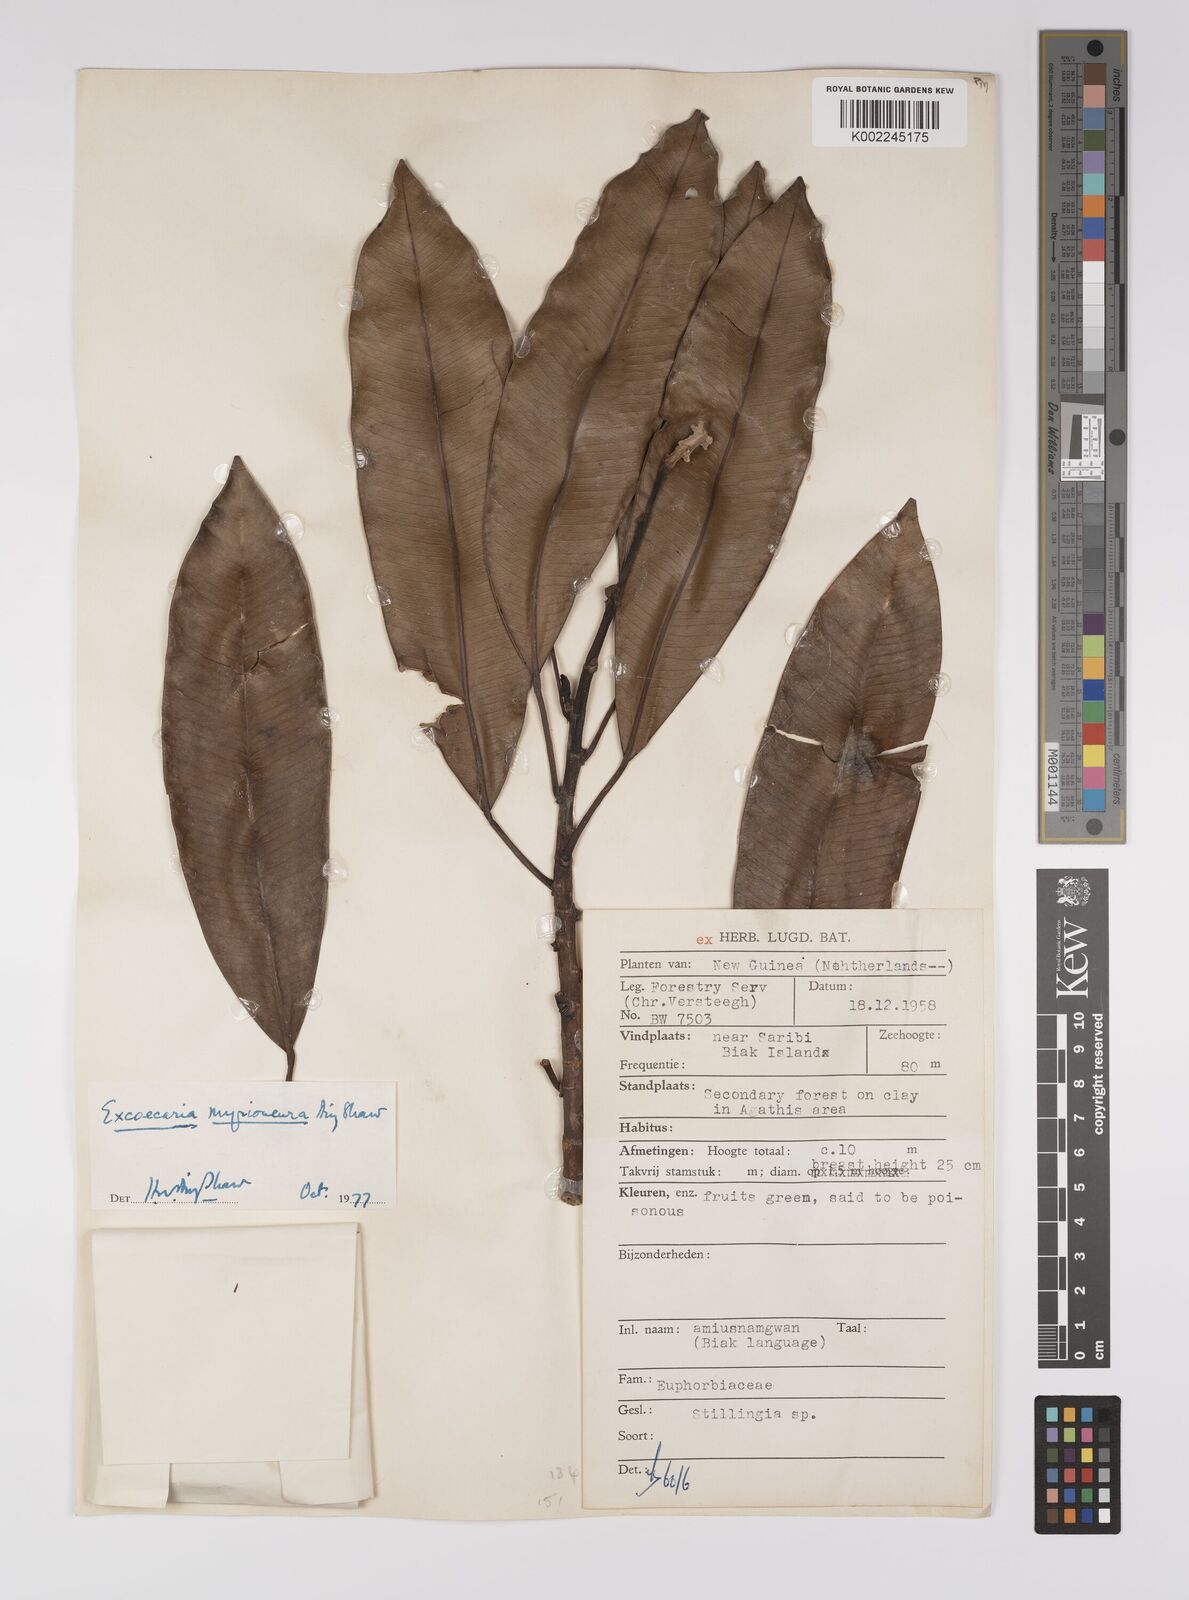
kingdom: Plantae
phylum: Tracheophyta
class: Magnoliopsida
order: Malpighiales
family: Euphorbiaceae
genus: Excoecaria
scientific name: Excoecaria myrioneura
